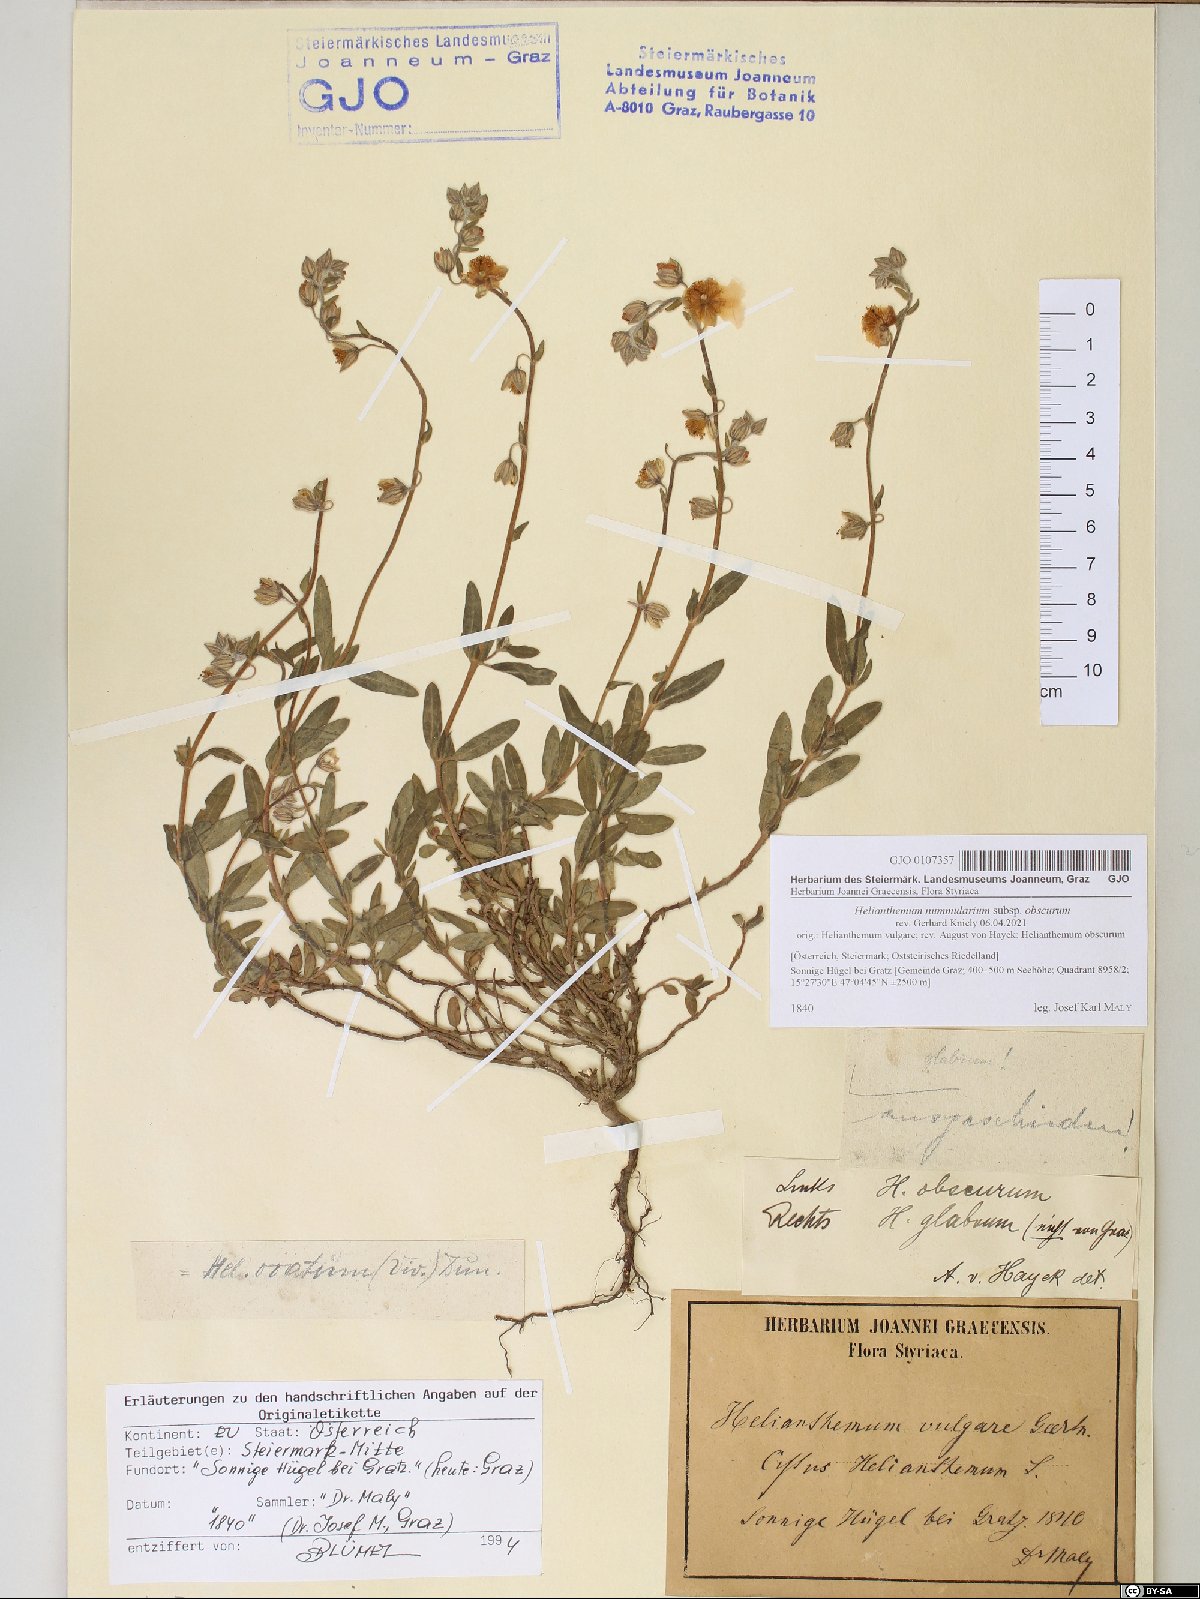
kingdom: Plantae
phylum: Tracheophyta
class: Magnoliopsida
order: Malvales
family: Cistaceae
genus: Helianthemum
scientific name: Helianthemum nummularium
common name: Common rock-rose
